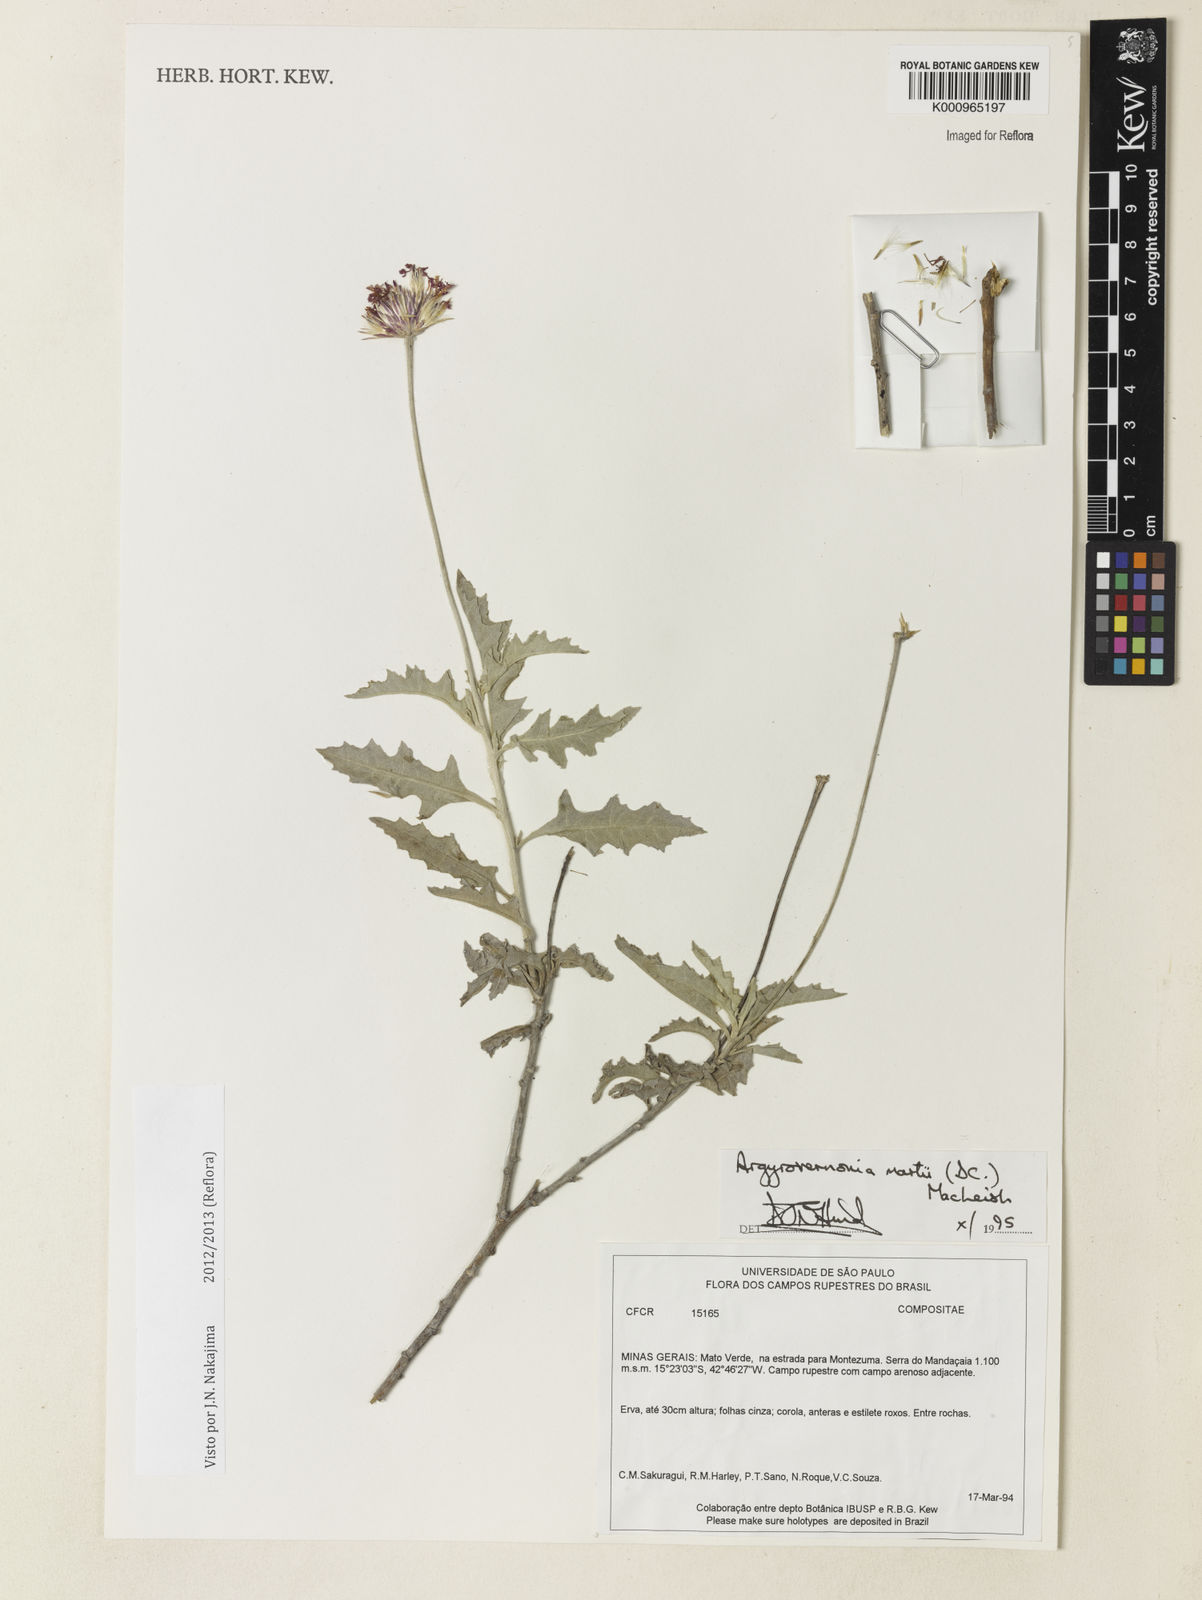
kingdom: Plantae
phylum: Tracheophyta
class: Magnoliopsida
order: Asterales
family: Asteraceae
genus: Chresta
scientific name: Chresta martii
